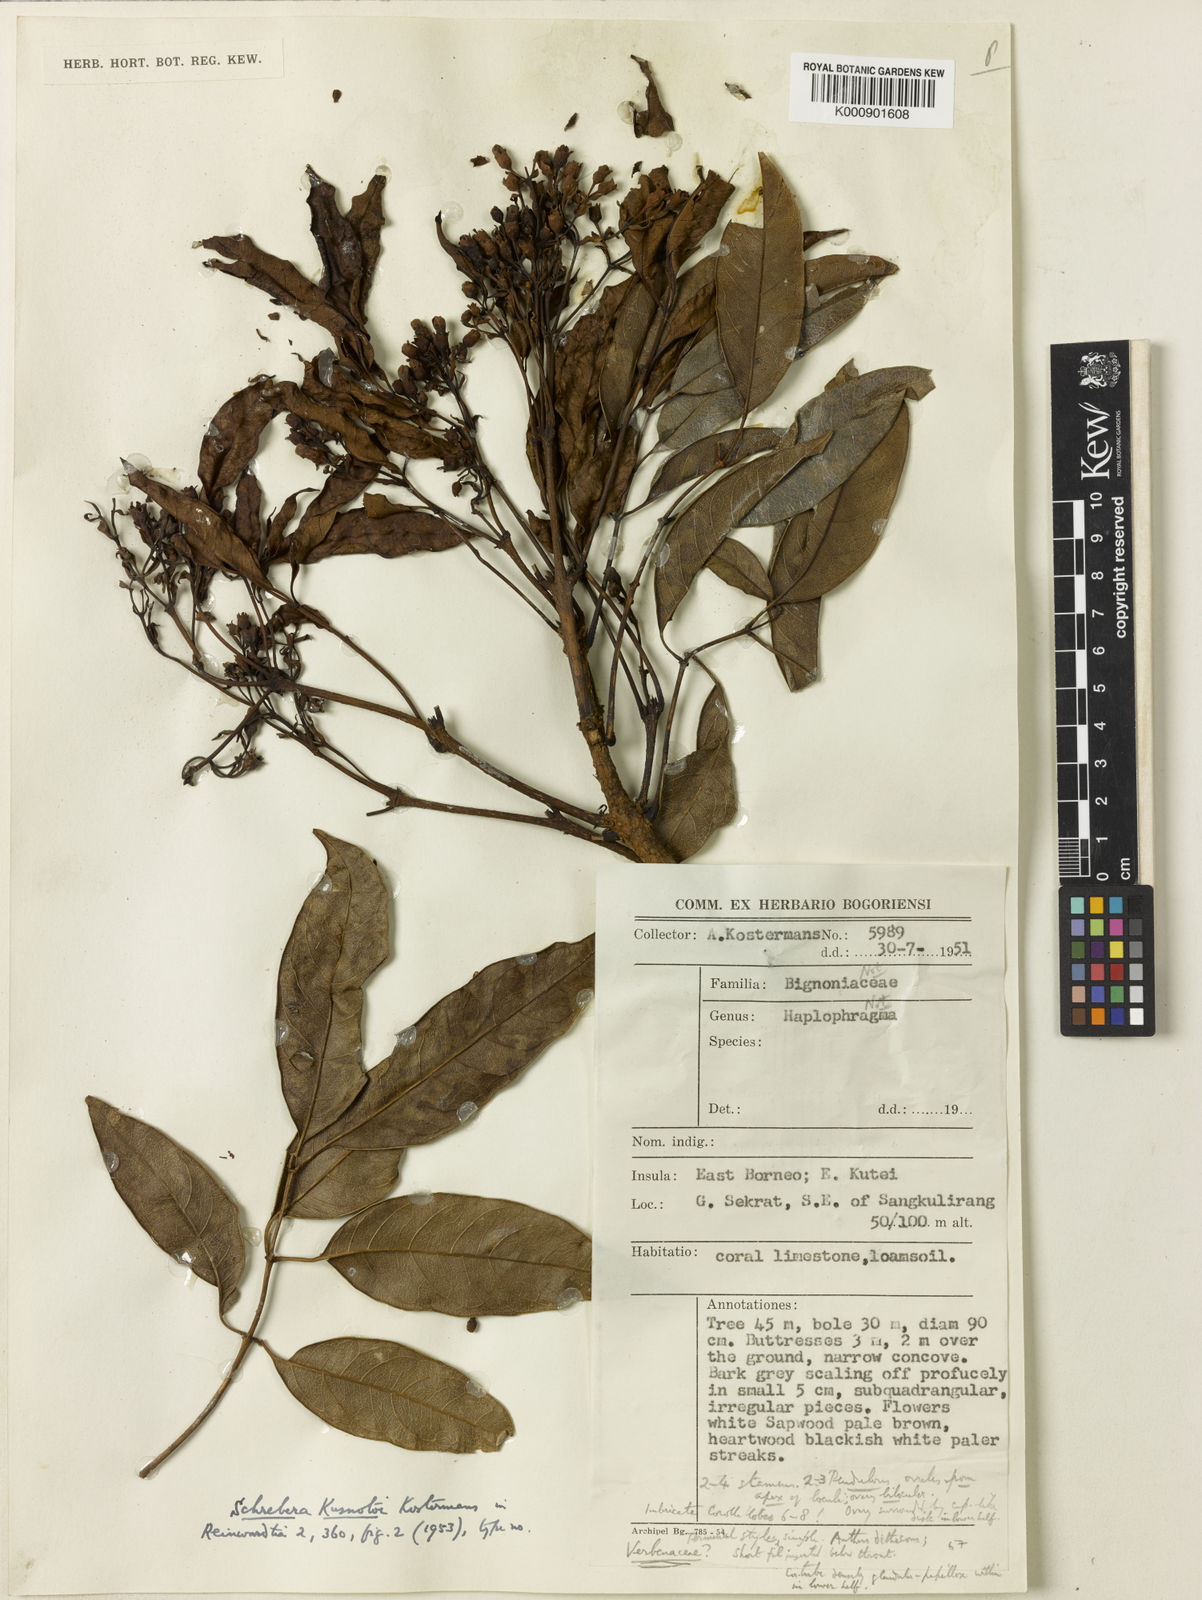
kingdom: Plantae
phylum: Tracheophyta
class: Magnoliopsida
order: Lamiales
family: Oleaceae
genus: Schrebera
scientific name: Schrebera kusnotoi
